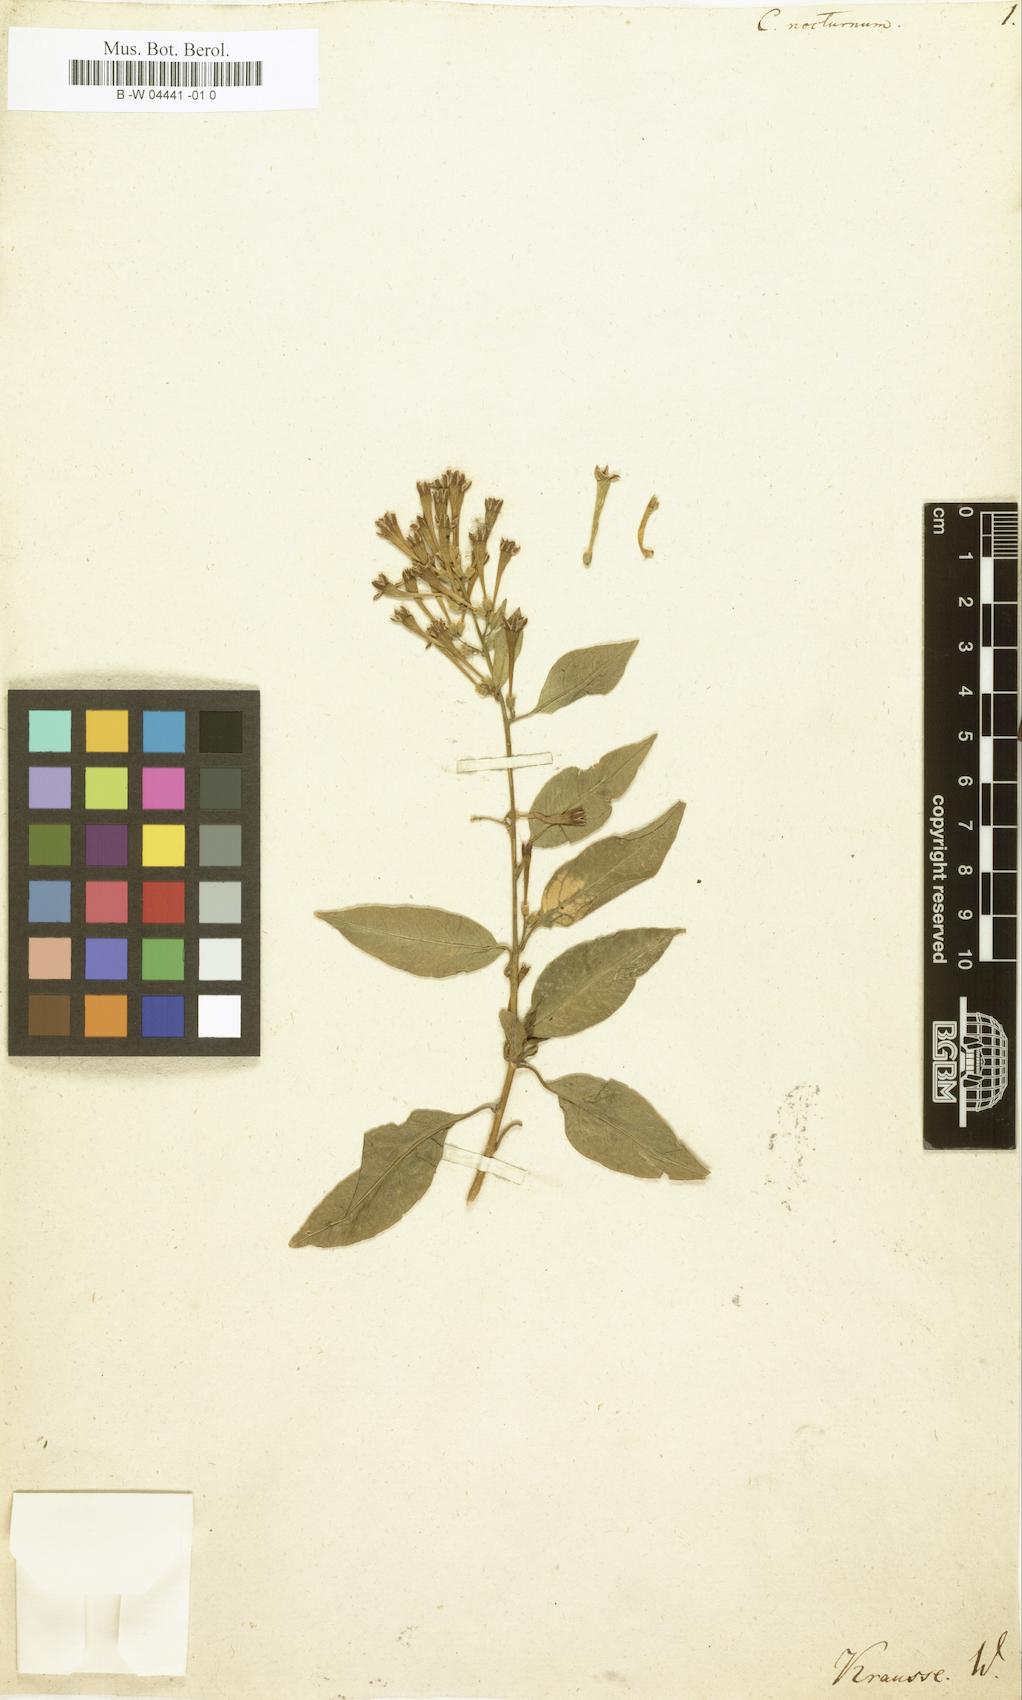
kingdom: Plantae
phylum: Tracheophyta
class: Magnoliopsida
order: Solanales
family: Solanaceae
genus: Cestrum
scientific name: Cestrum nocturnum
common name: Night jessamine
